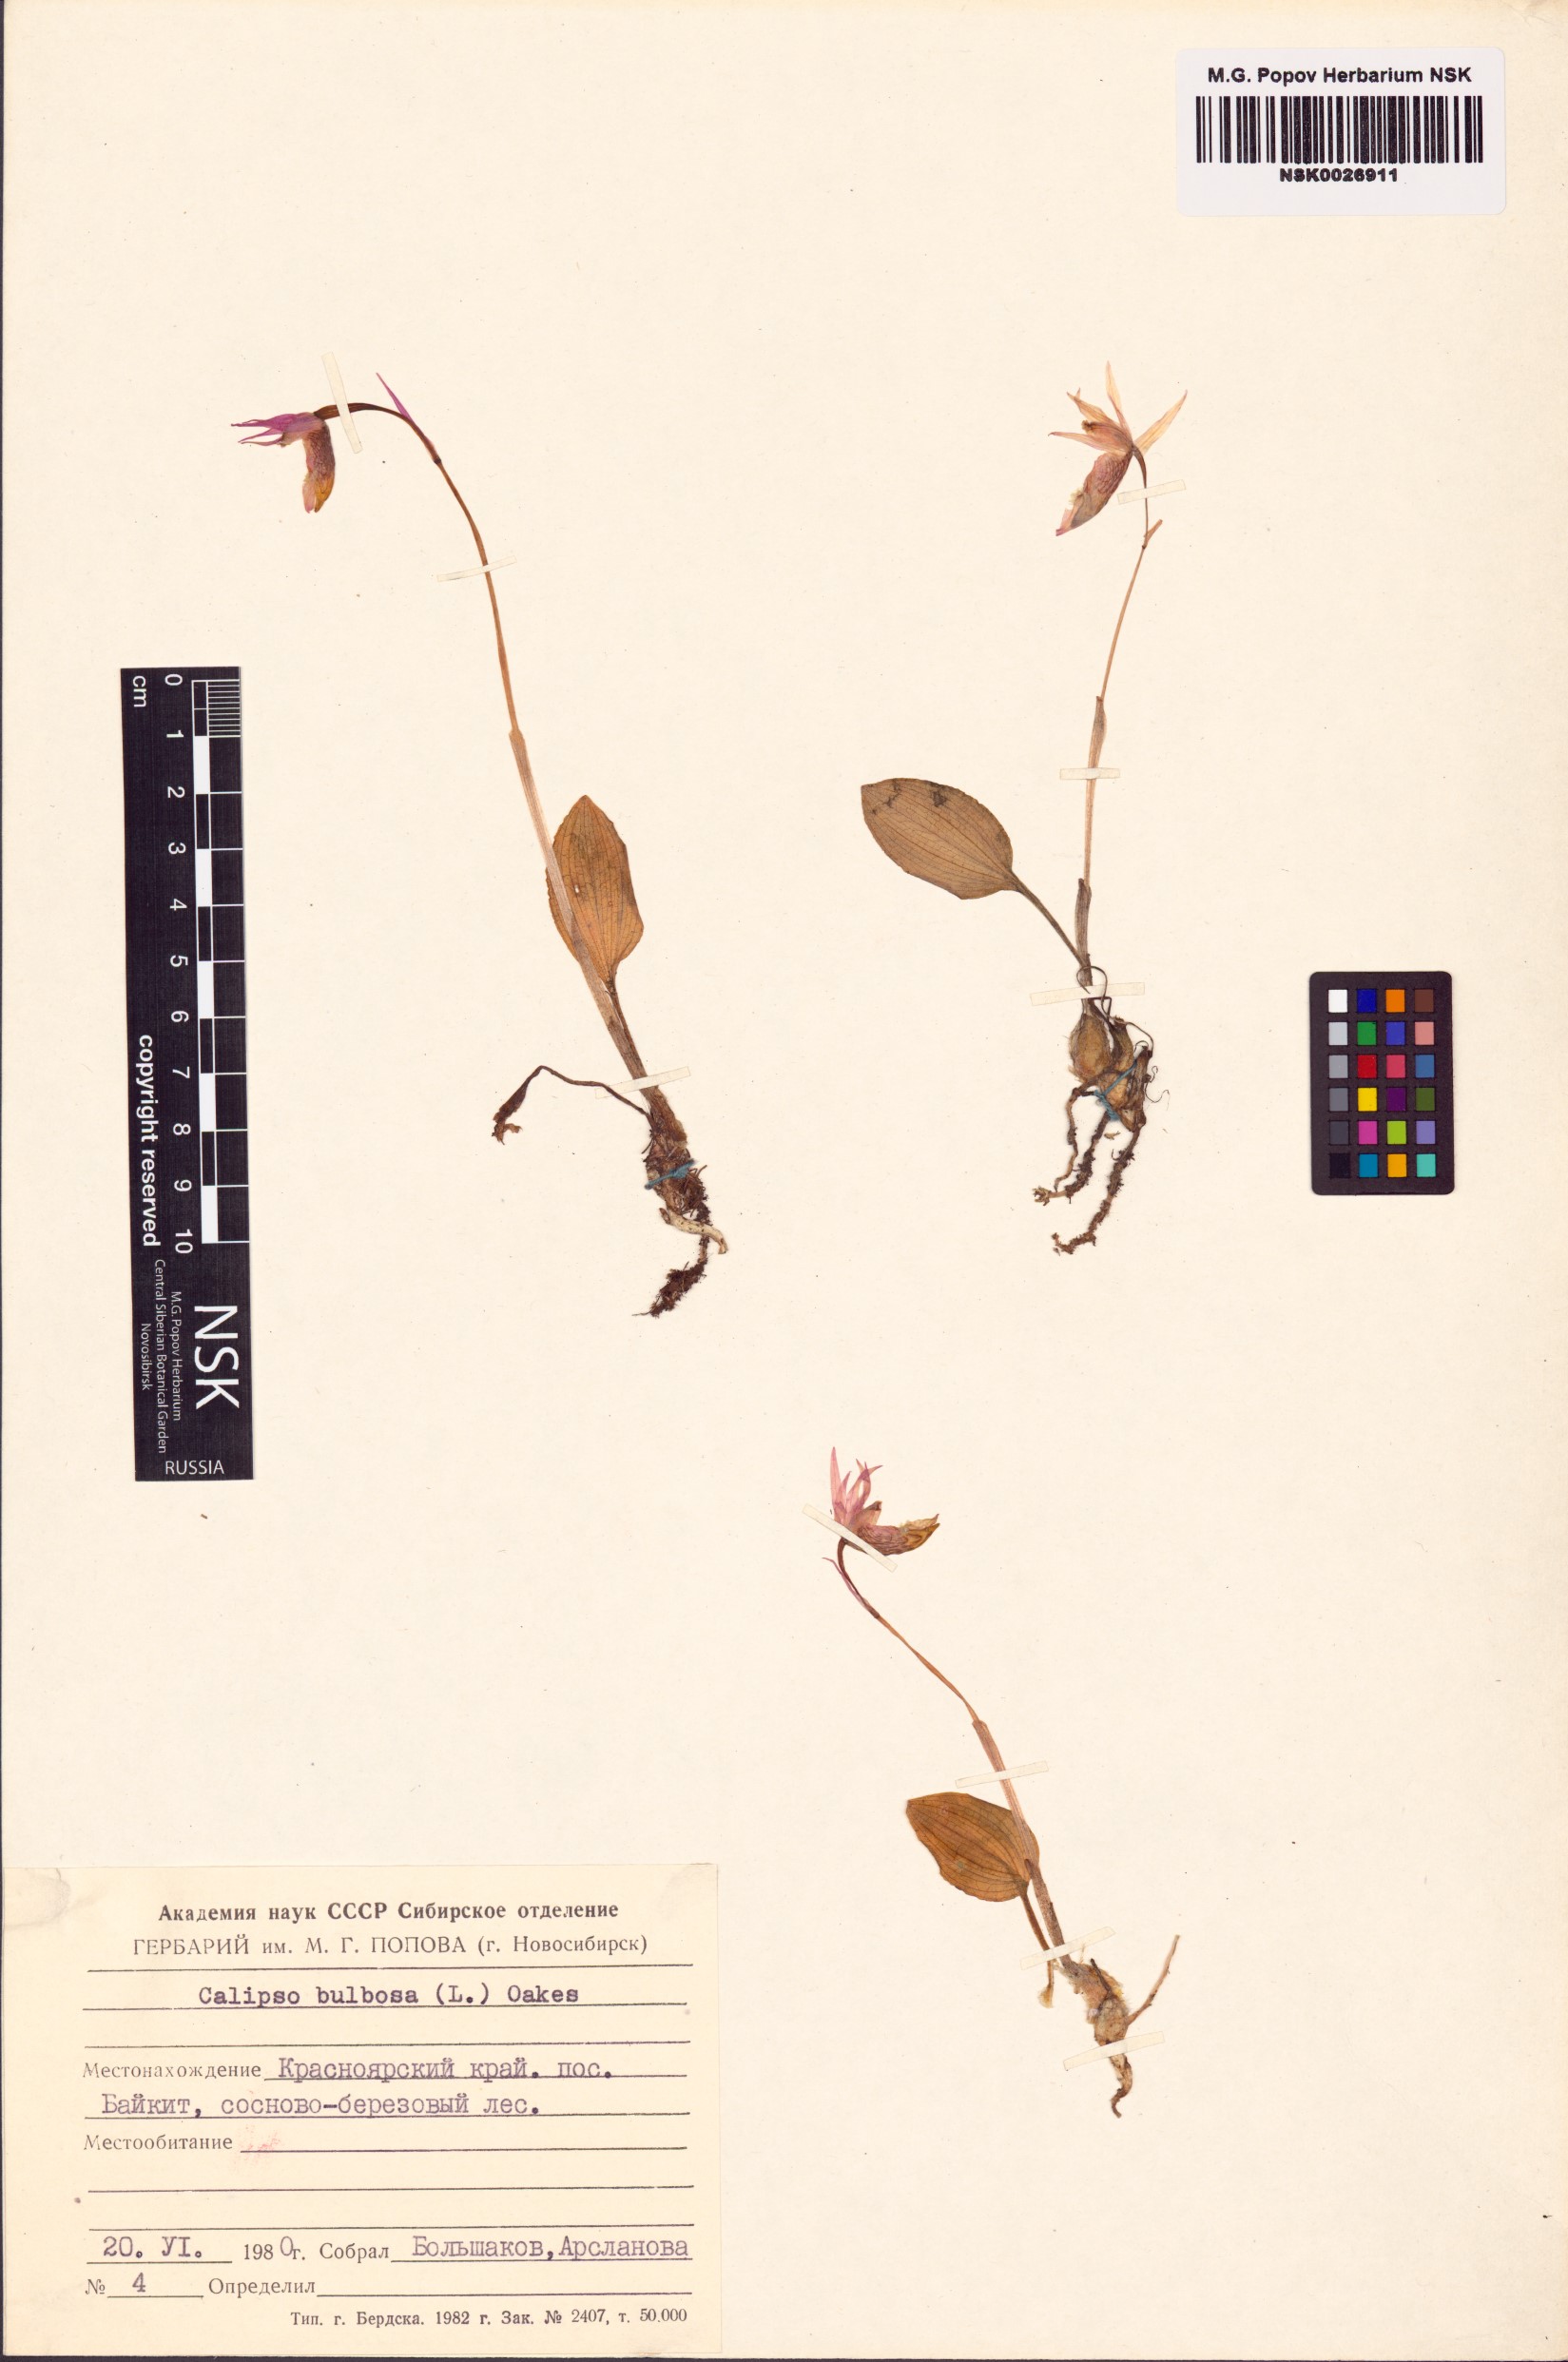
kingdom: Plantae
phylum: Tracheophyta
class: Liliopsida
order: Asparagales
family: Orchidaceae
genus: Calypso
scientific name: Calypso bulbosa
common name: Calypso
